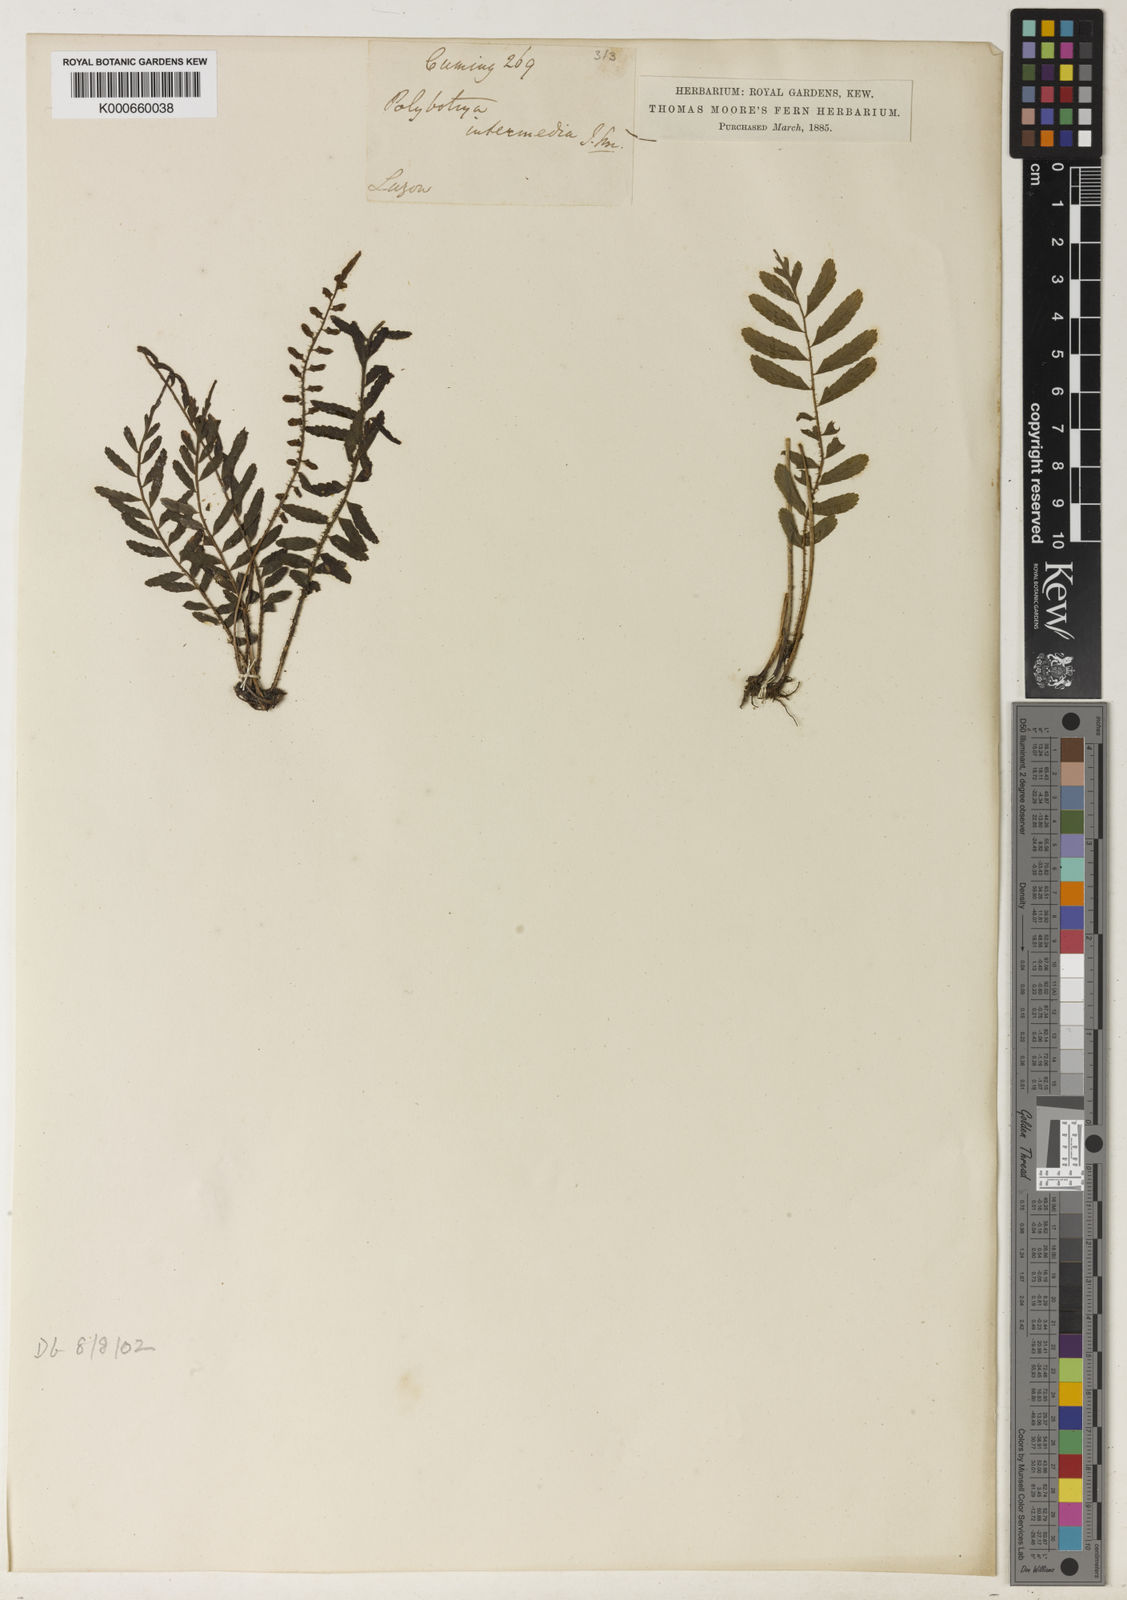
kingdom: Plantae
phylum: Tracheophyta
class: Polypodiopsida
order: Polypodiales
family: Dryopteridaceae
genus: Bolbitis
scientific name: Bolbitis rhizophylla
